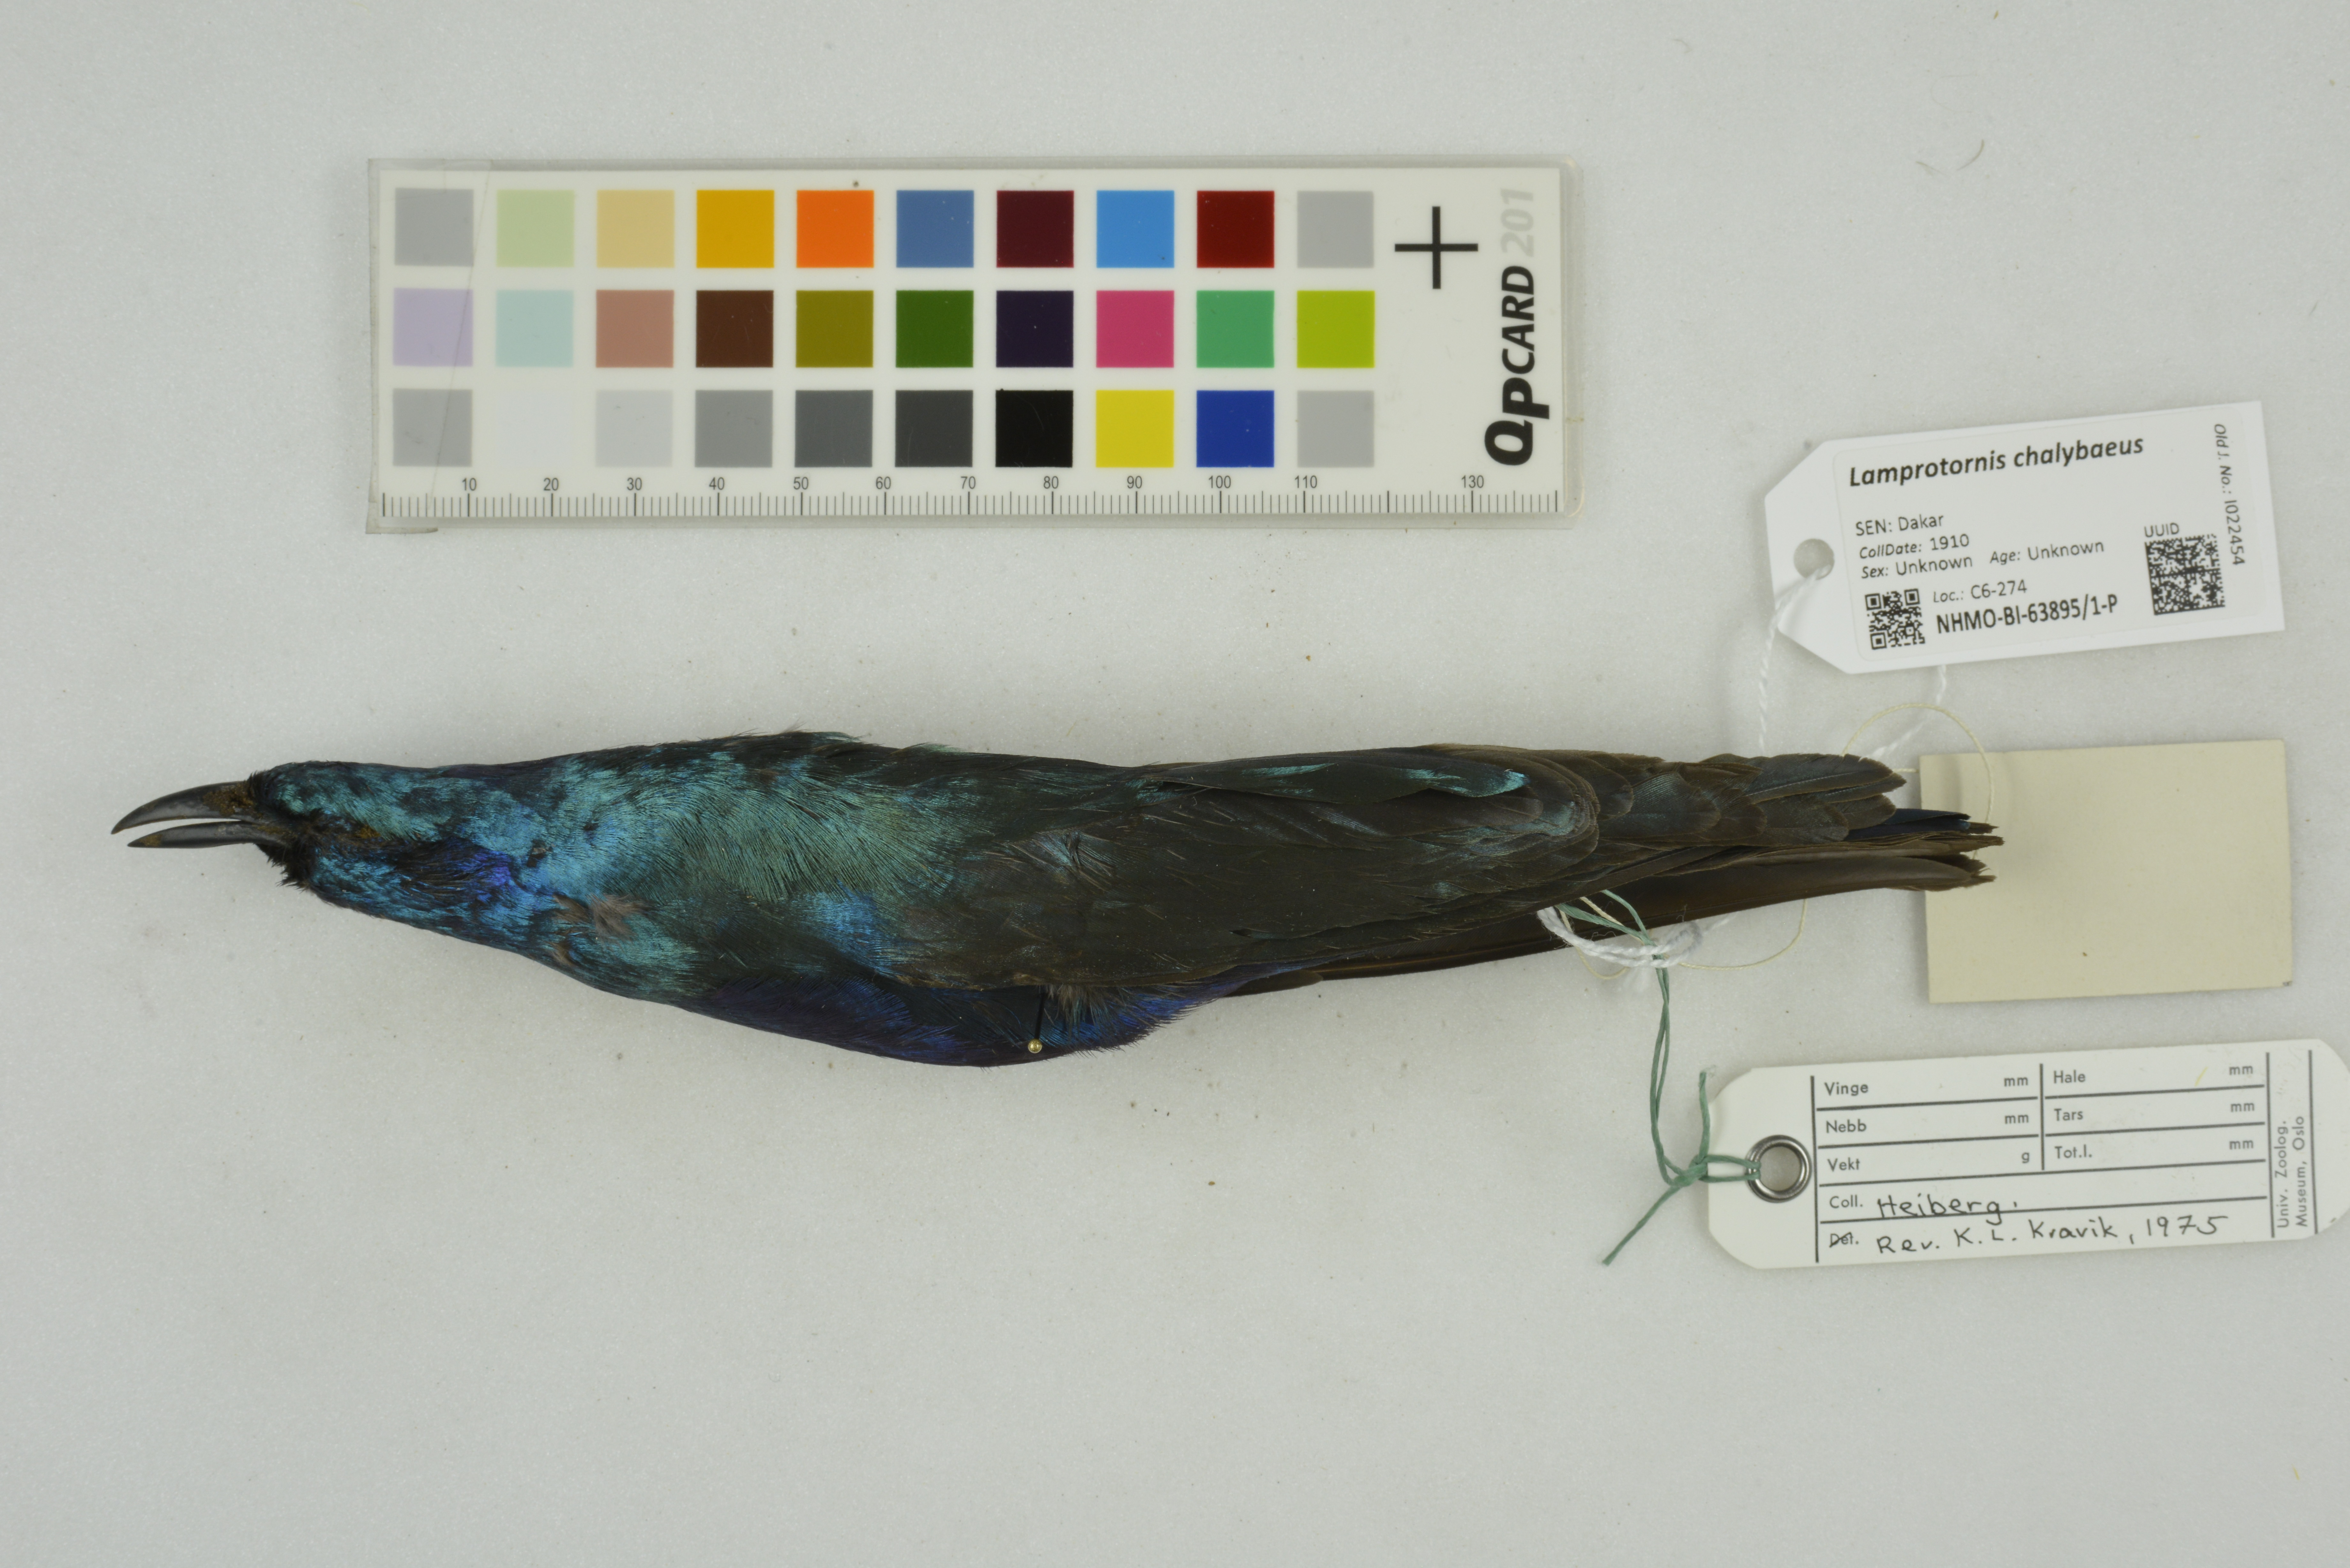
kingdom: Animalia
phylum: Chordata
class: Aves
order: Passeriformes
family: Sturnidae
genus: Lamprotornis
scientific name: Lamprotornis chalybaeus
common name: Greater blue-eared starling
